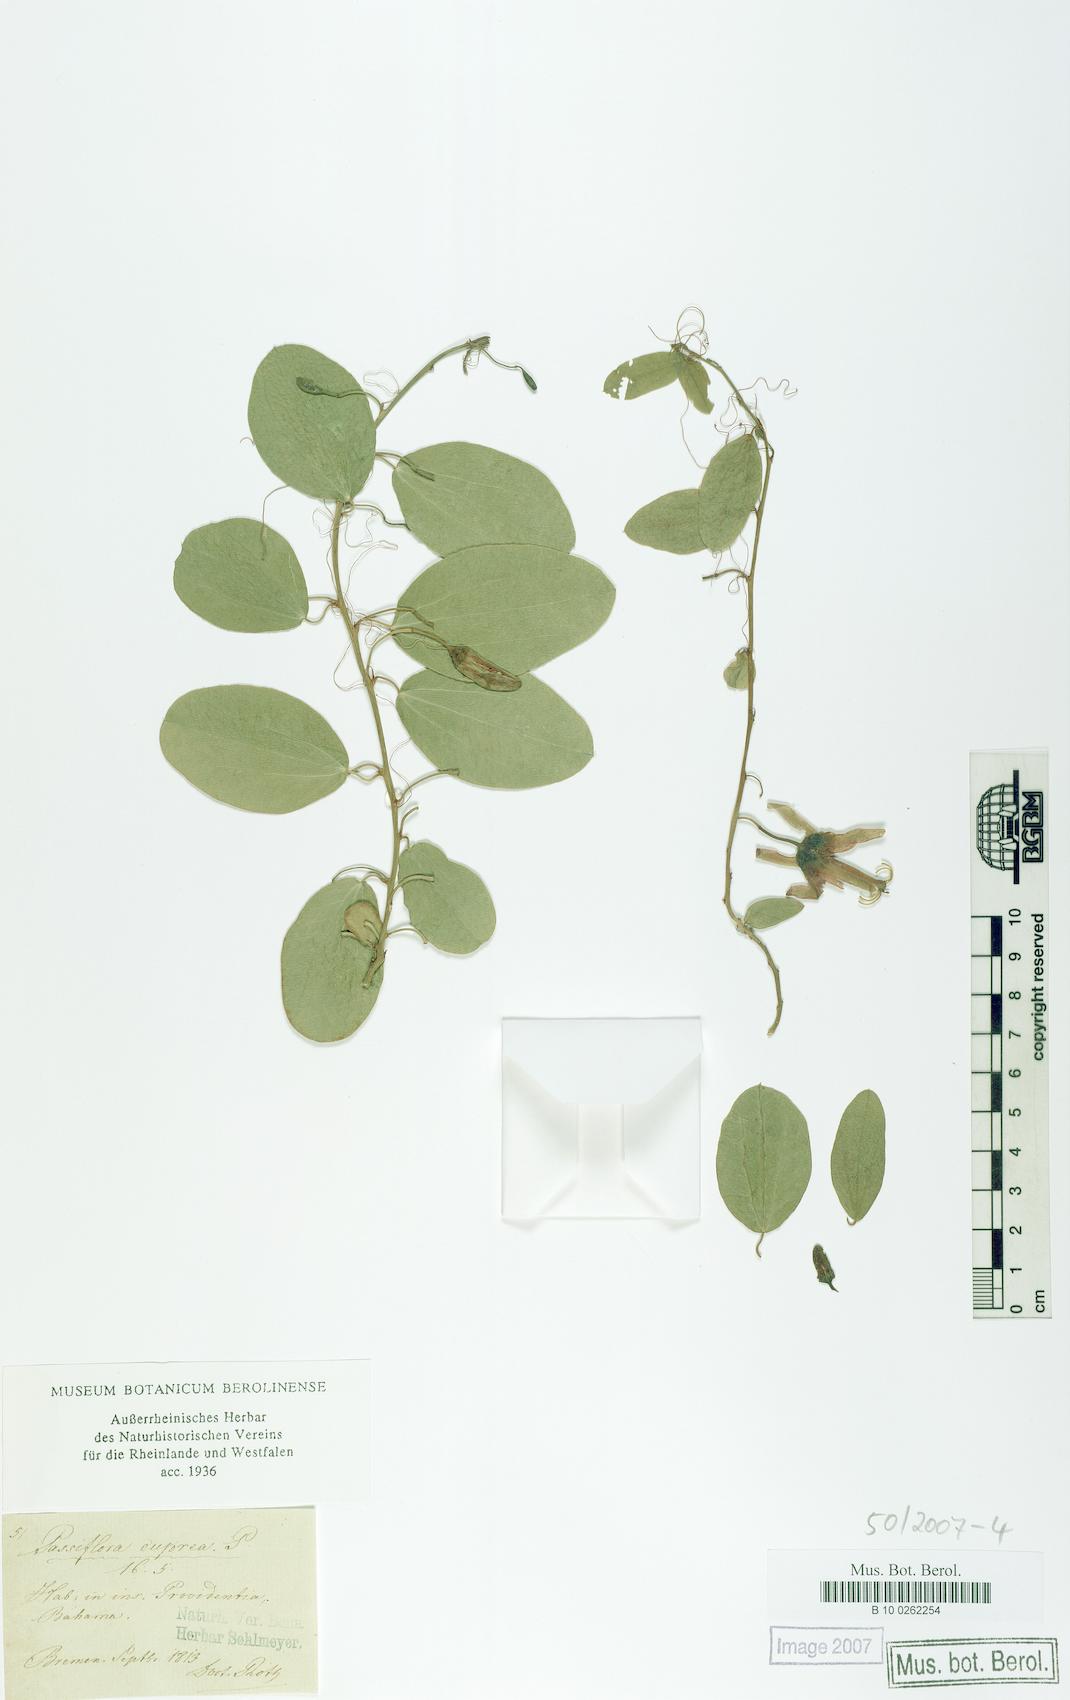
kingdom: Plantae
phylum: Tracheophyta
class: Magnoliopsida
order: Malpighiales
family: Passifloraceae
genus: Passiflora
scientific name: Passiflora cuprea
